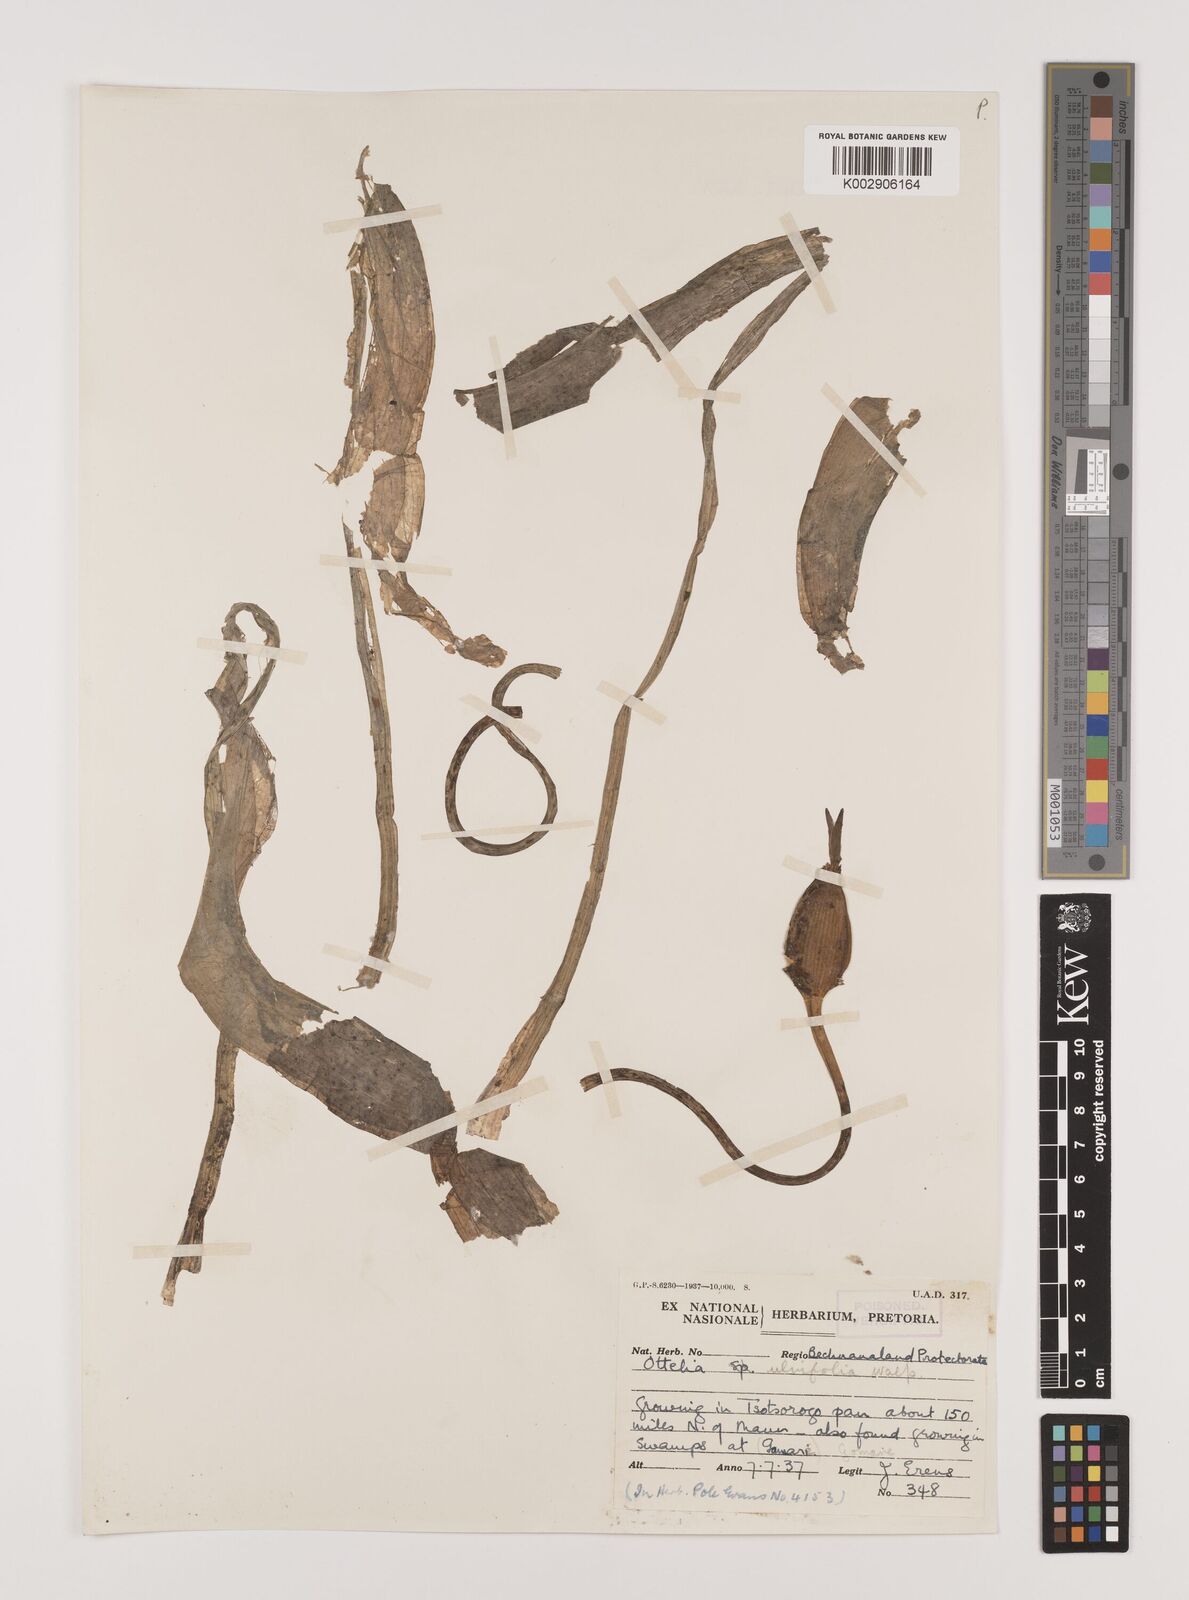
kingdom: Plantae
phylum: Tracheophyta
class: Liliopsida
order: Alismatales
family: Hydrocharitaceae
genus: Ottelia
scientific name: Ottelia ulvifolia
